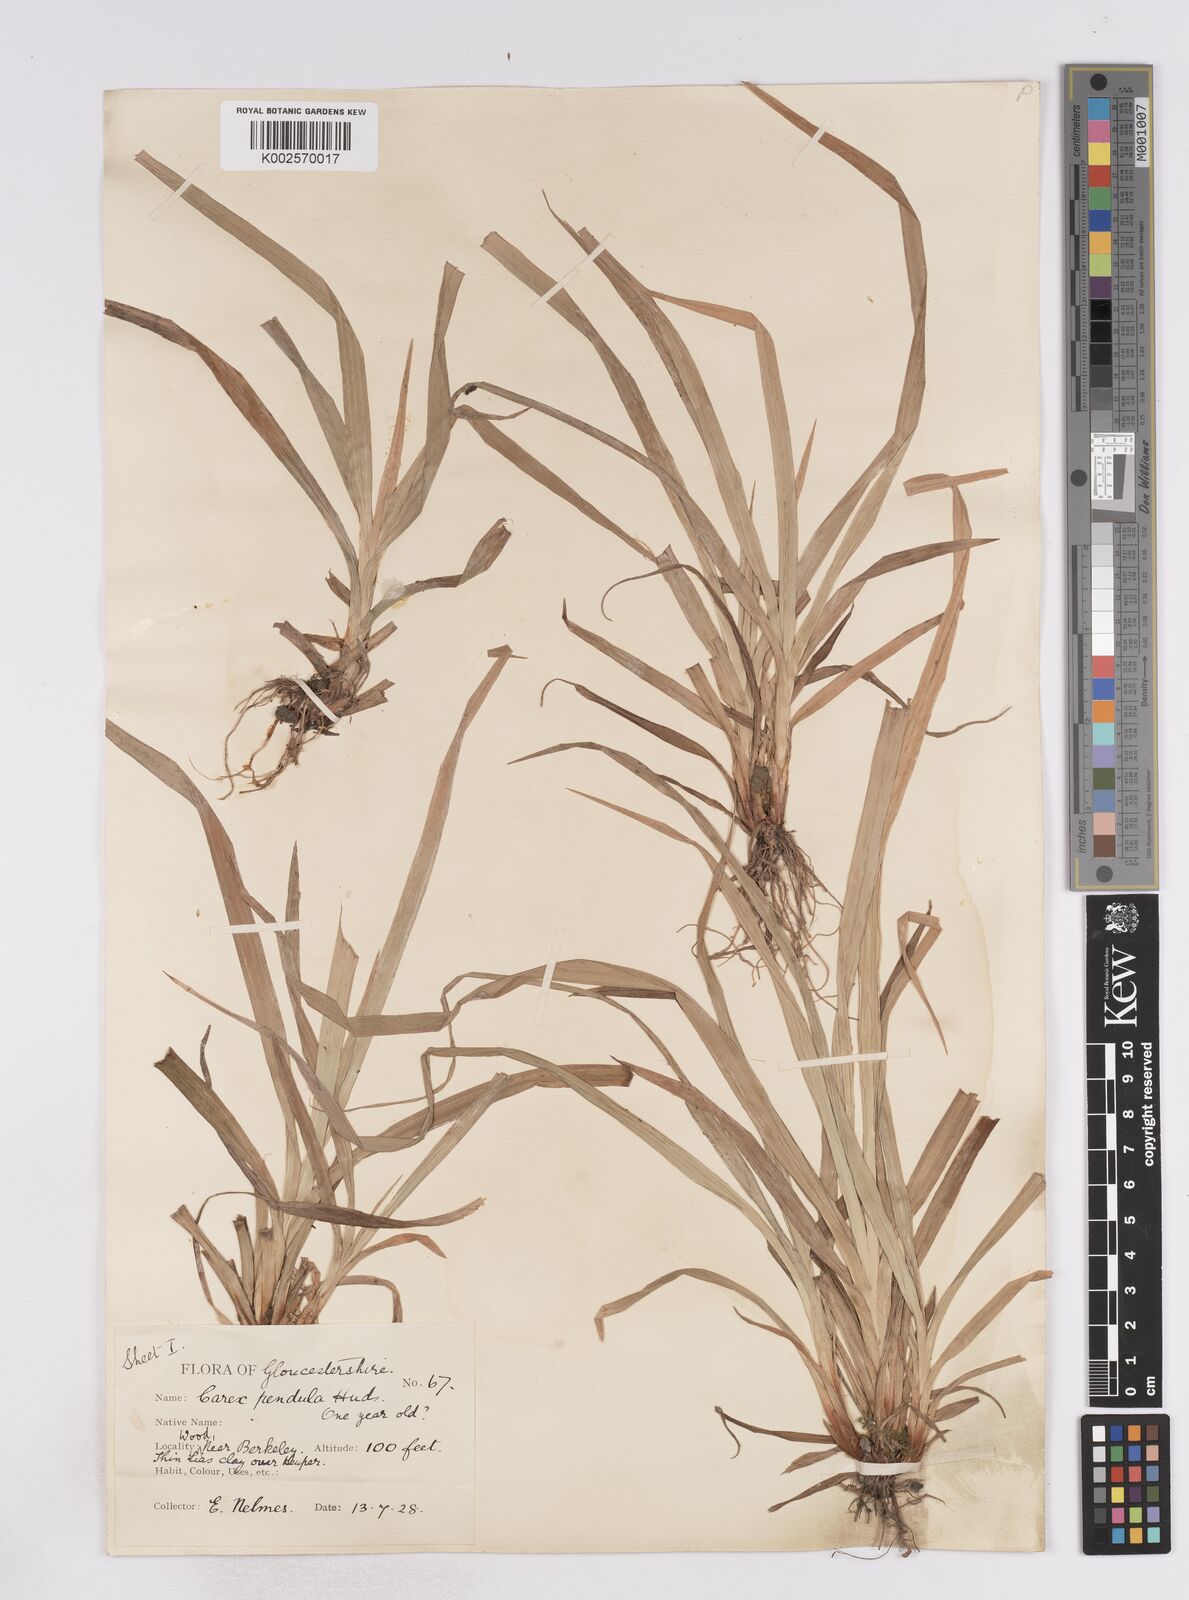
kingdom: Plantae
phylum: Tracheophyta
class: Liliopsida
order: Poales
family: Cyperaceae
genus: Carex
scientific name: Carex pendula
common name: Pendulous sedge
